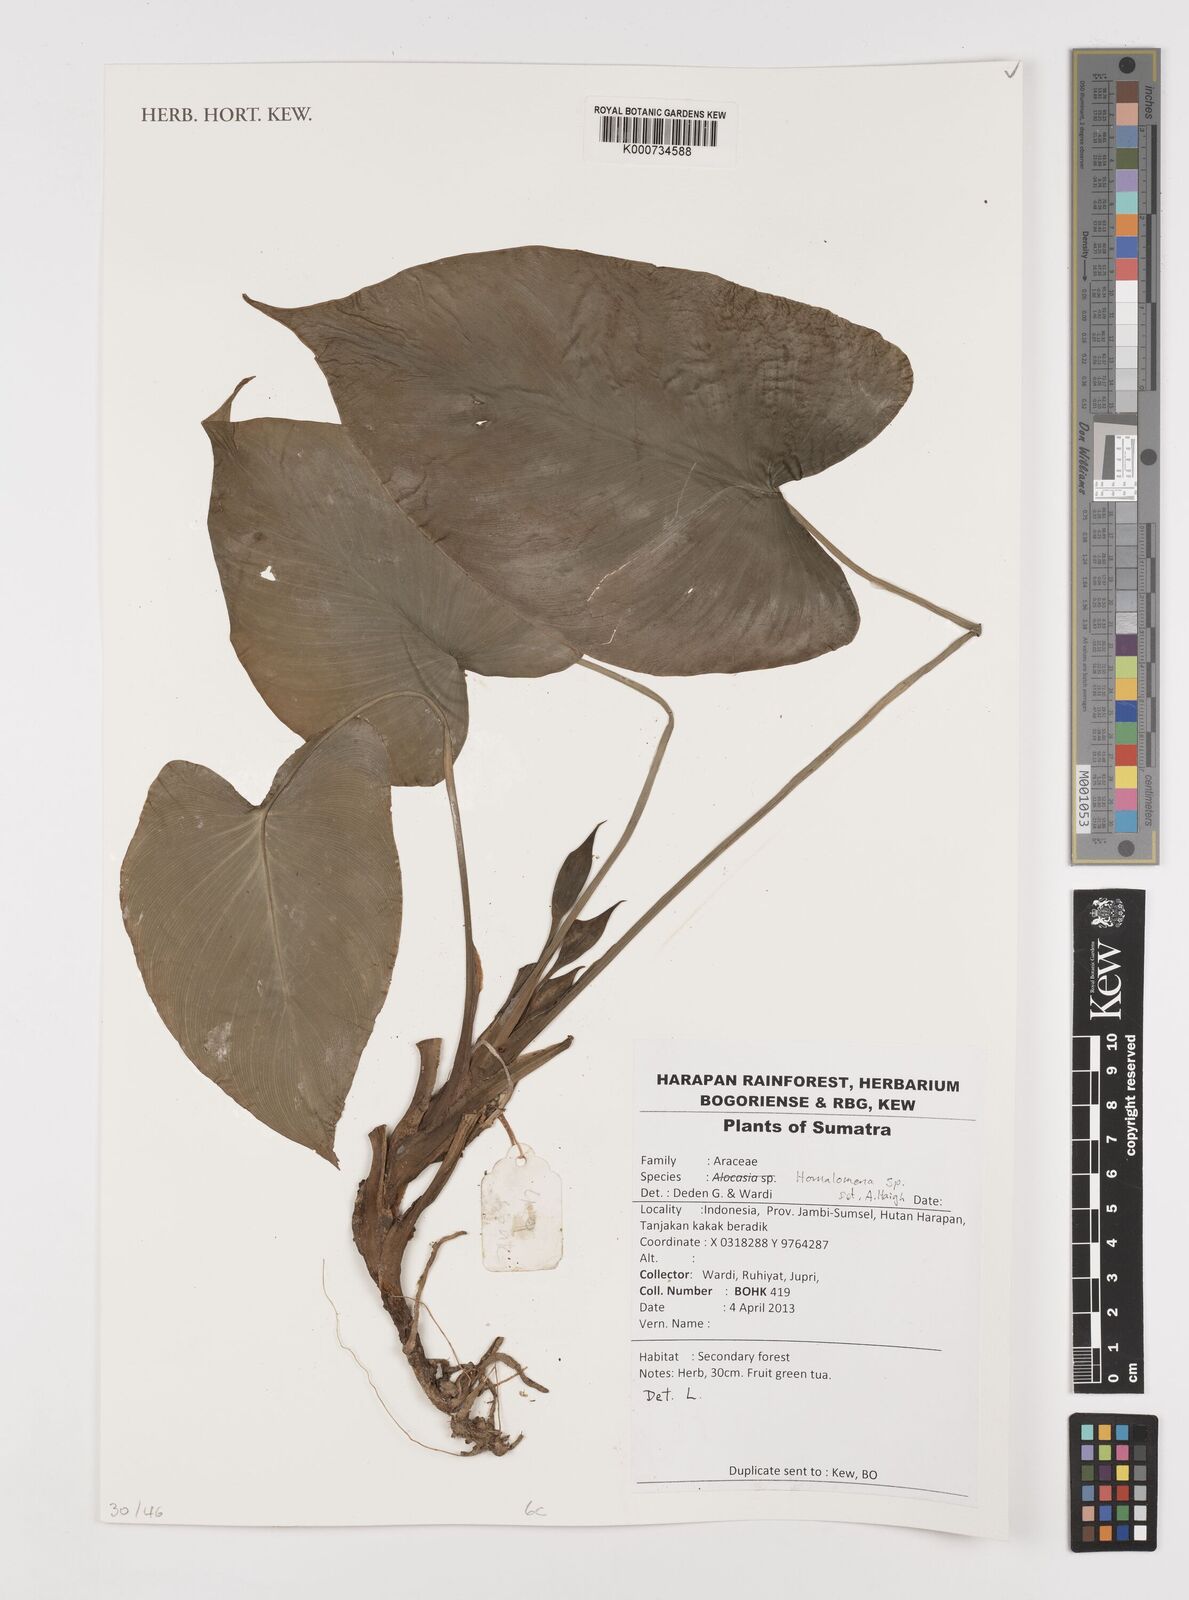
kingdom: Plantae
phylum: Tracheophyta
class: Liliopsida
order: Alismatales
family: Araceae
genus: Homalomena
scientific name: Homalomena
